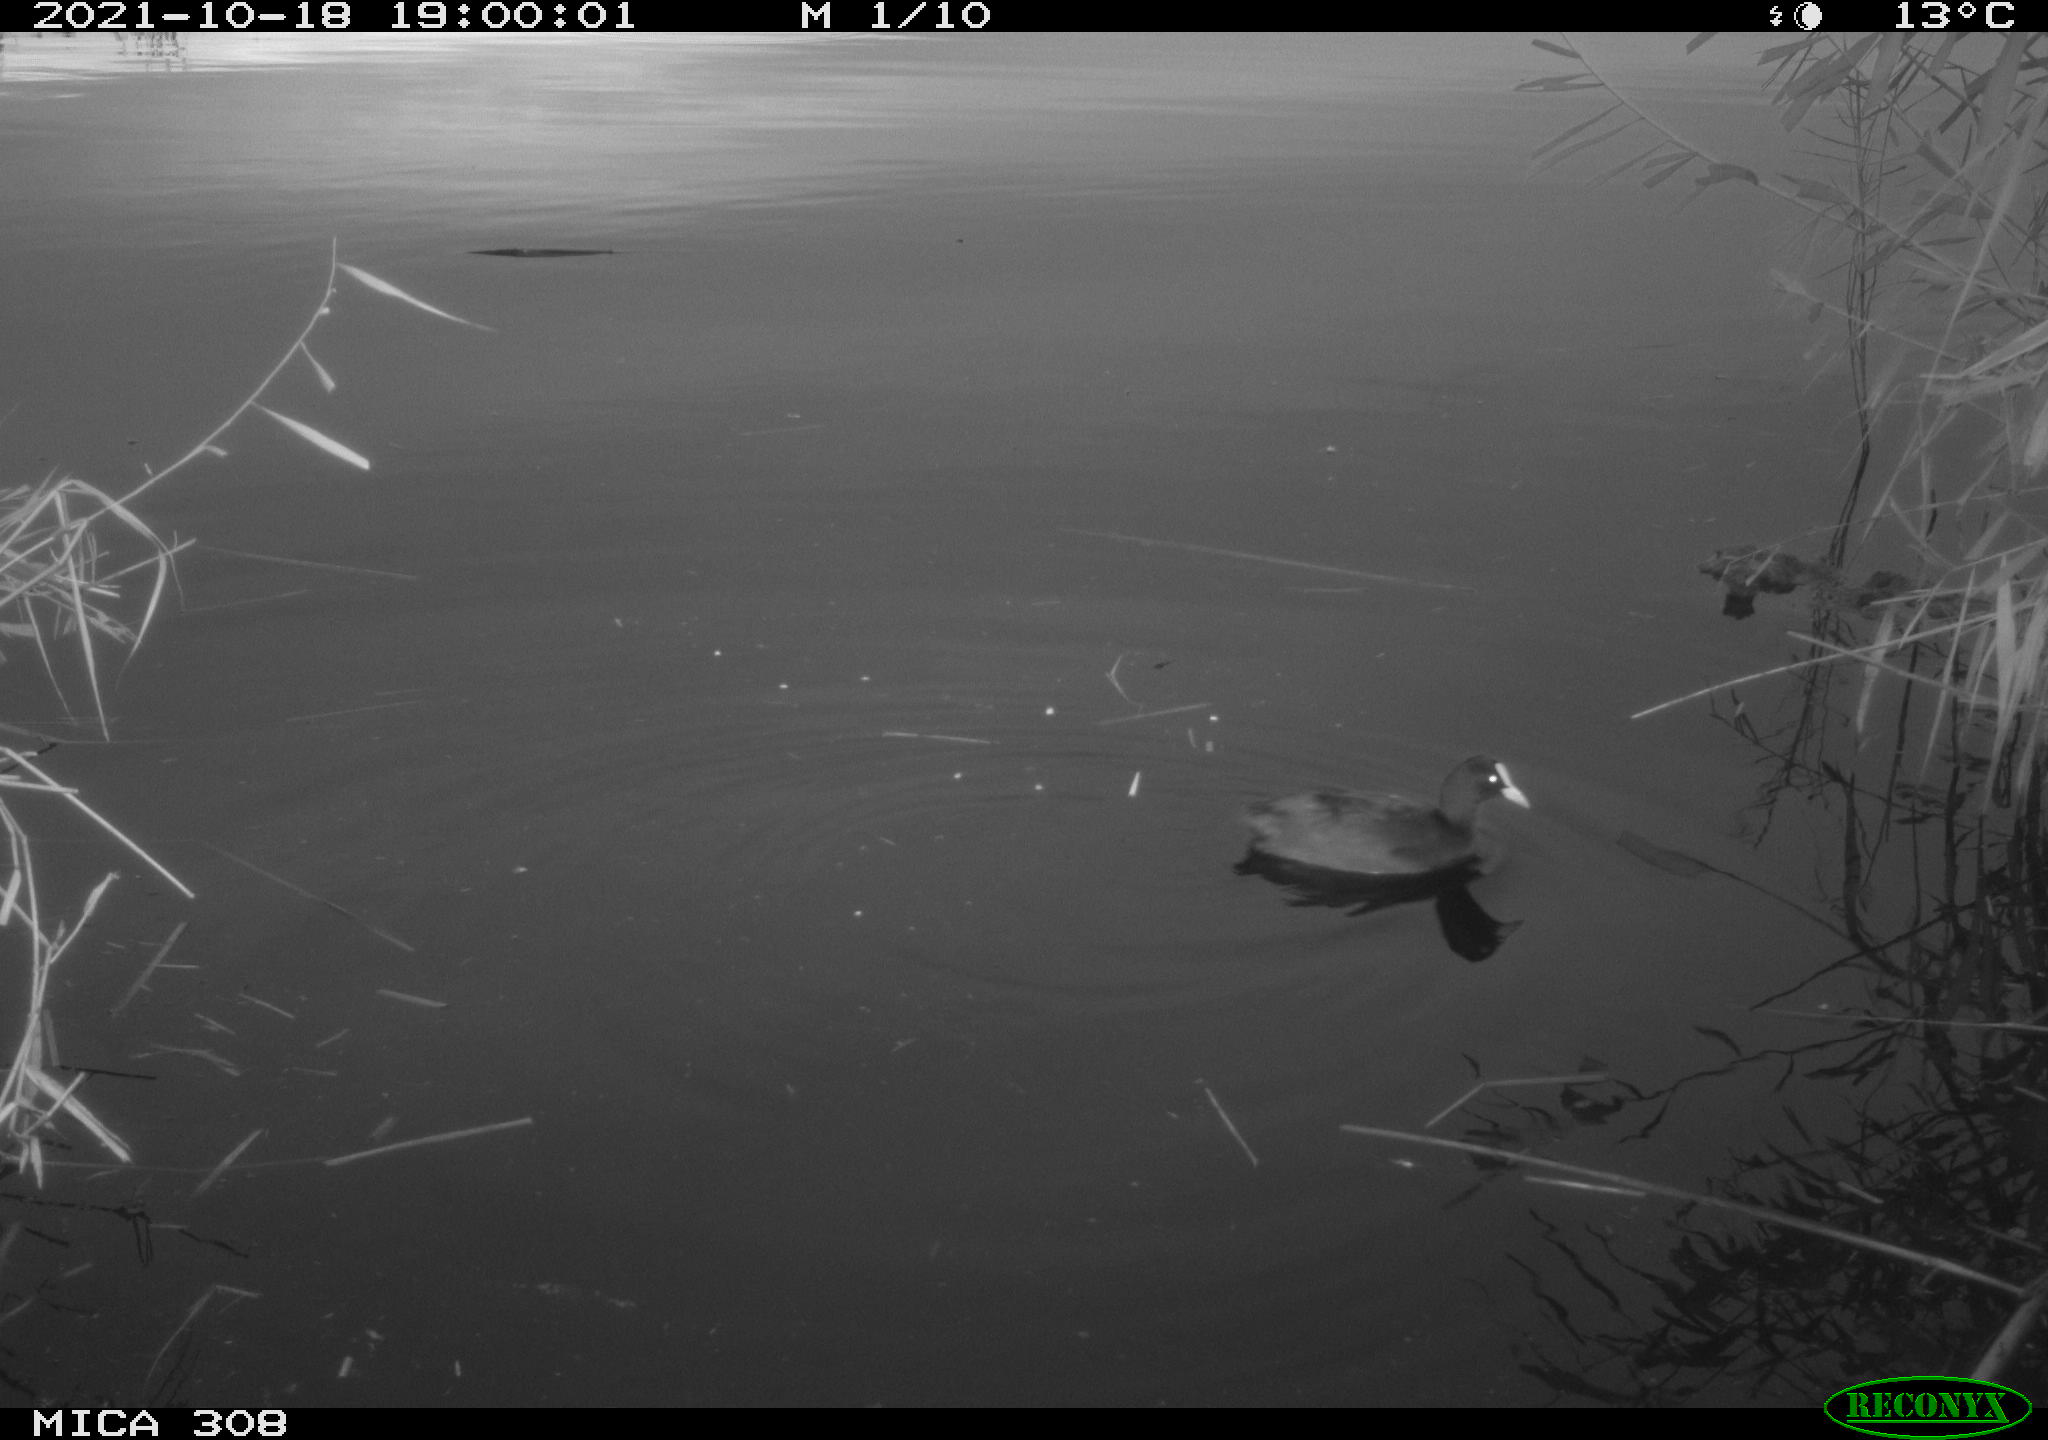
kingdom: Animalia
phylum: Chordata
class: Aves
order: Gruiformes
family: Rallidae
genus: Fulica
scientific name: Fulica atra
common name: Eurasian coot
